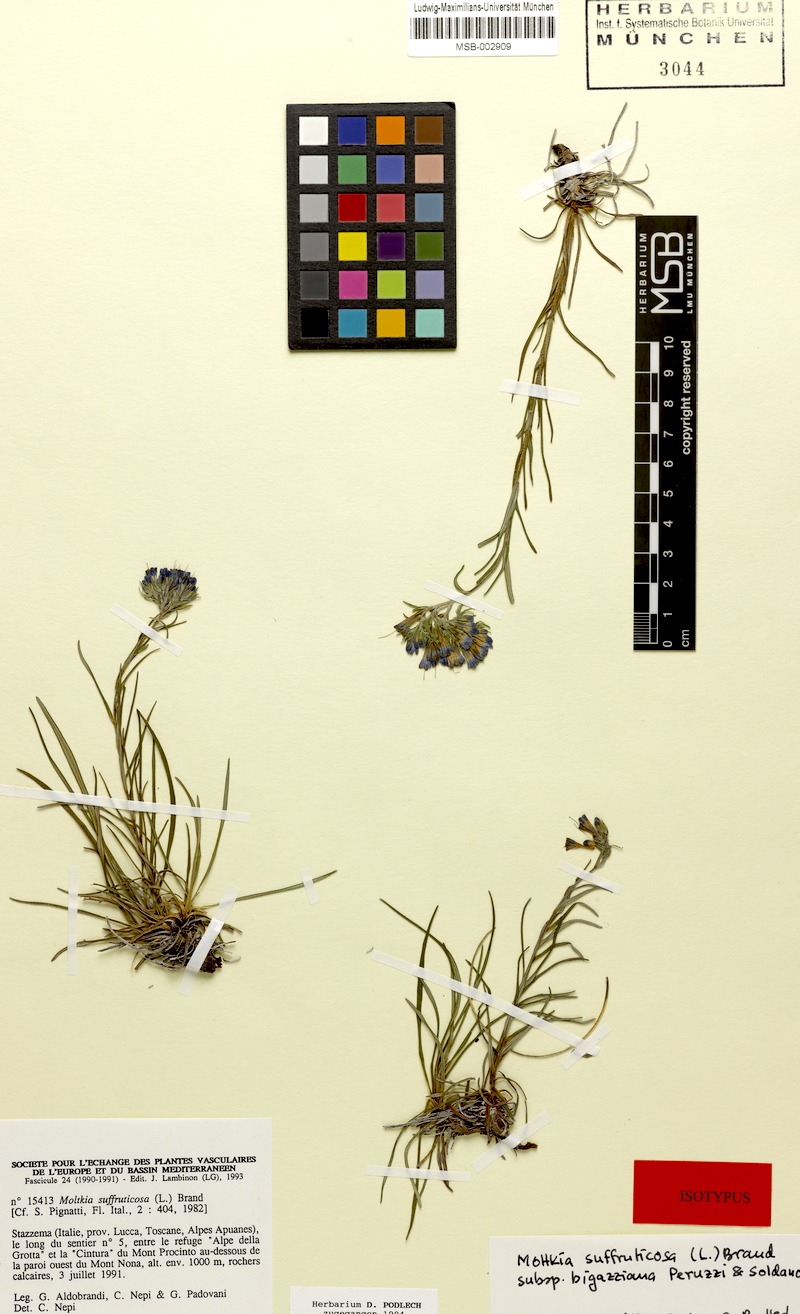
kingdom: Plantae
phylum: Tracheophyta
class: Magnoliopsida
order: Boraginales
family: Boraginaceae
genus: Moltkia
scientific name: Moltkia suffruticosa
